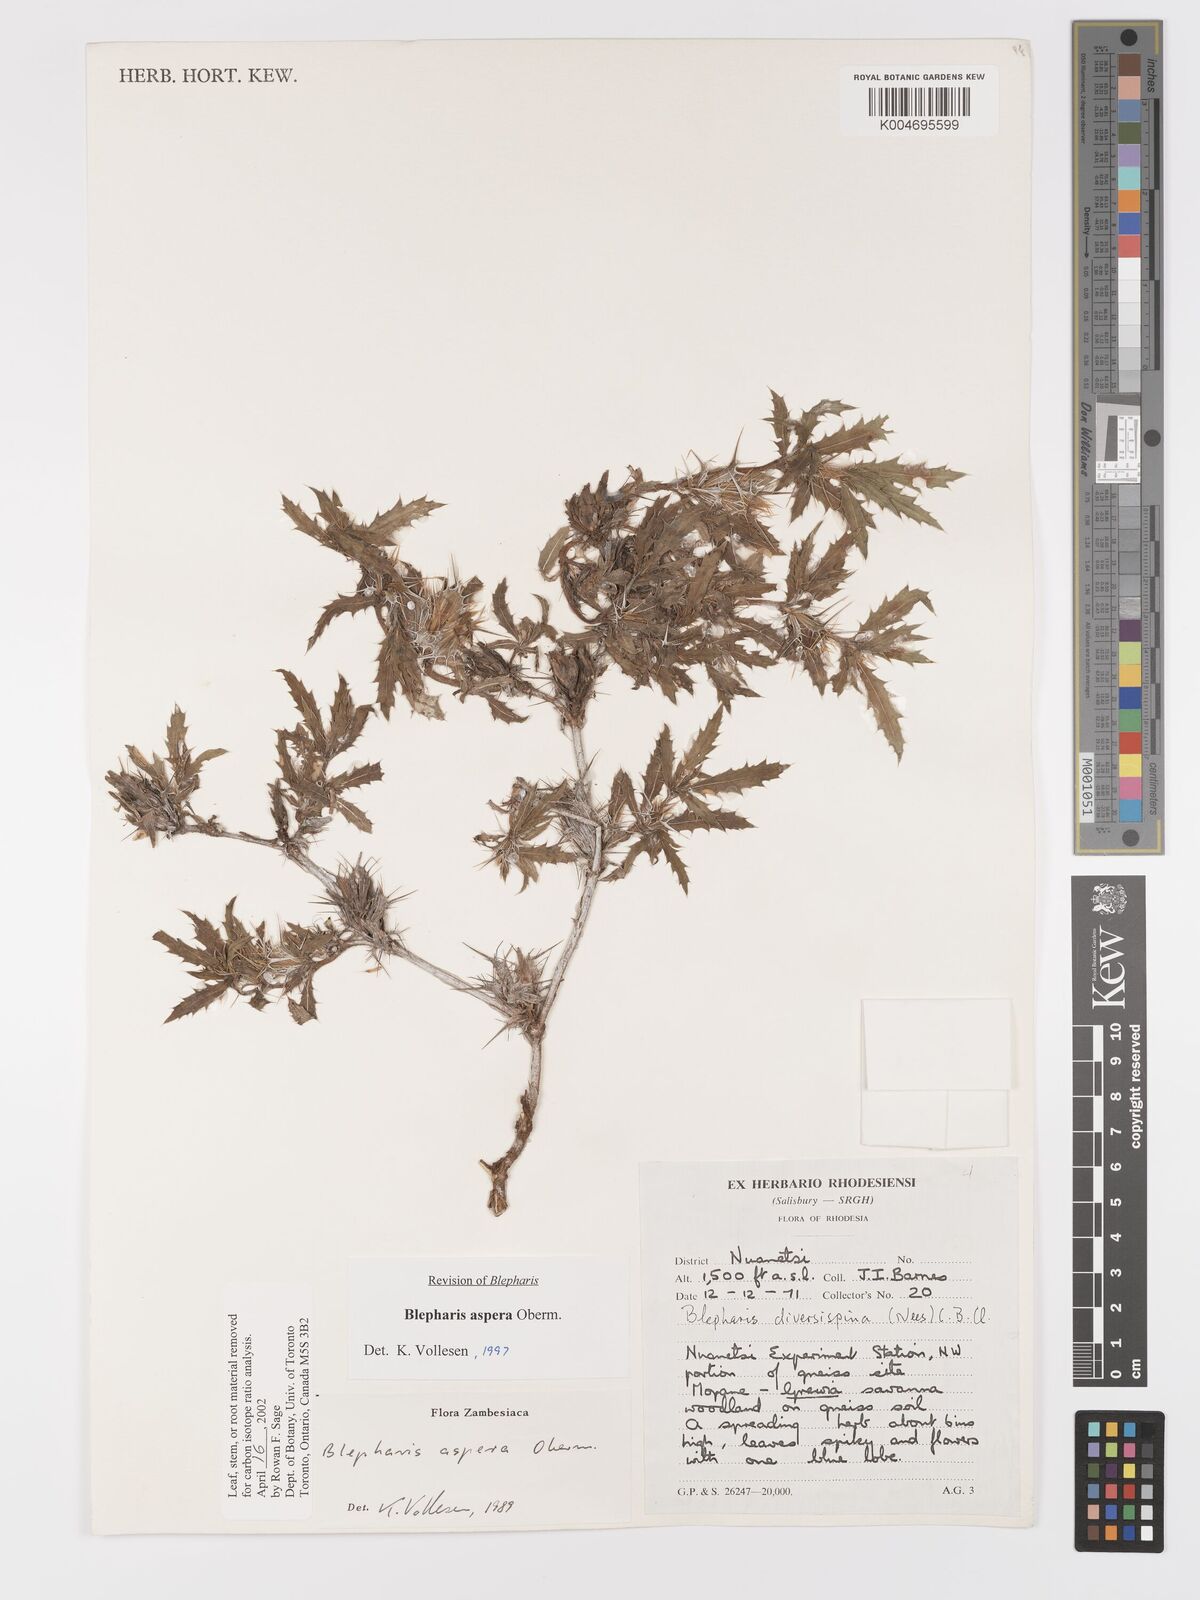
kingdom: Plantae
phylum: Tracheophyta
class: Magnoliopsida
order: Lamiales
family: Acanthaceae
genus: Blepharis
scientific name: Blepharis aspera
